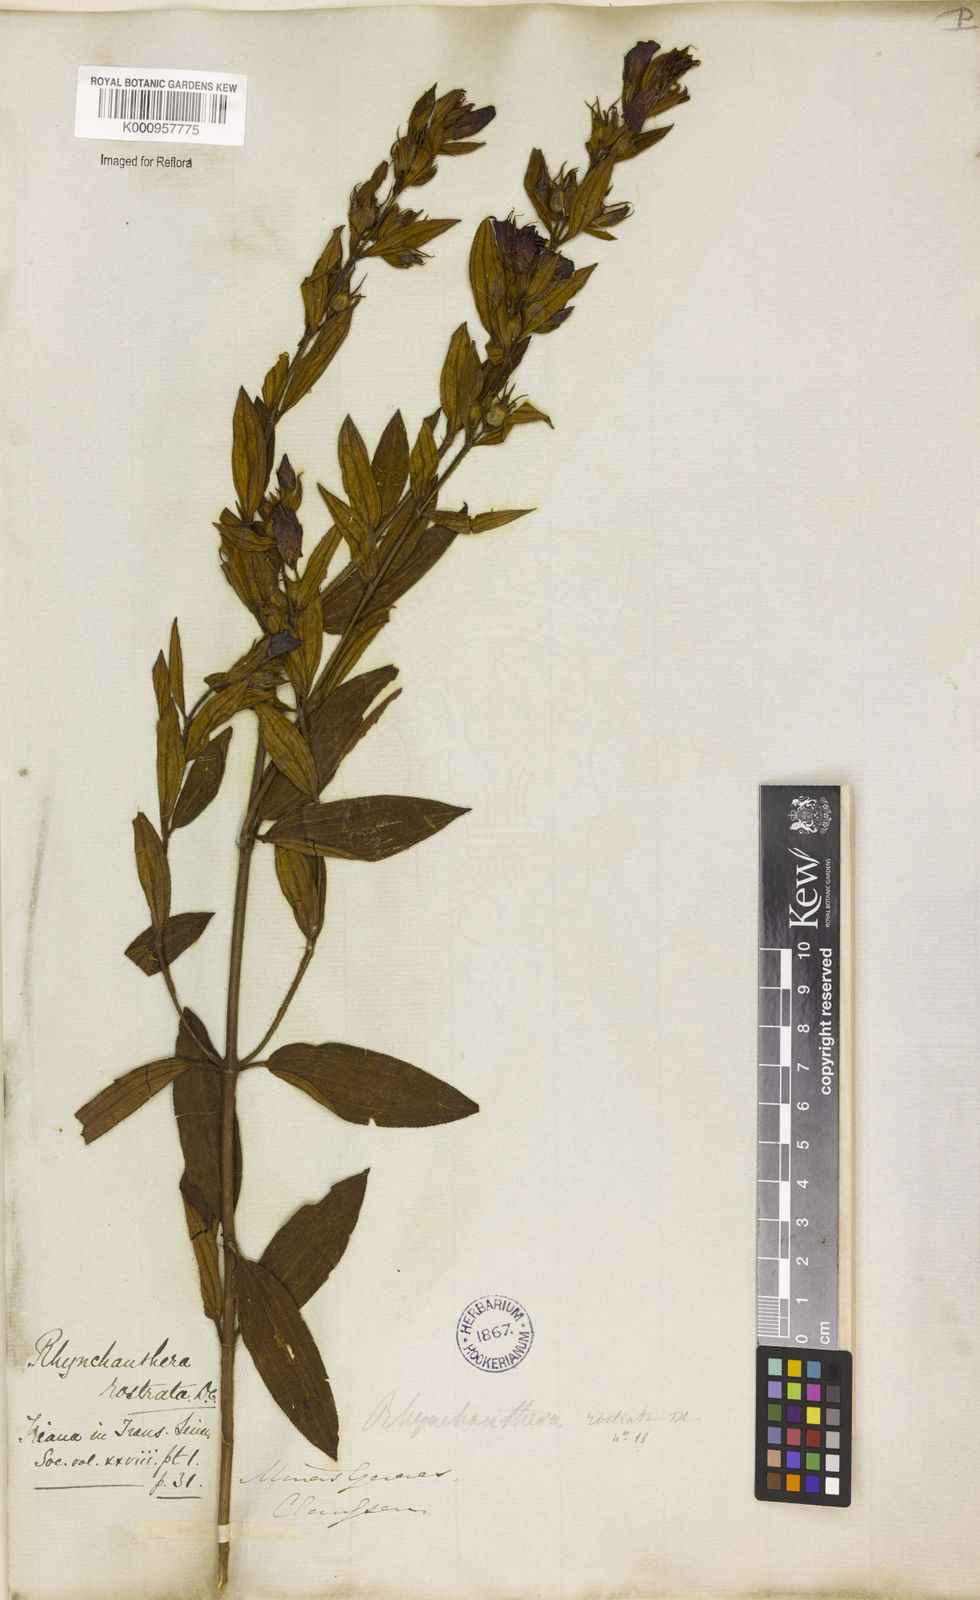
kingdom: Plantae
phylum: Tracheophyta
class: Magnoliopsida
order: Myrtales
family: Melastomataceae
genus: Rhynchanthera
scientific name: Rhynchanthera grandiflora
